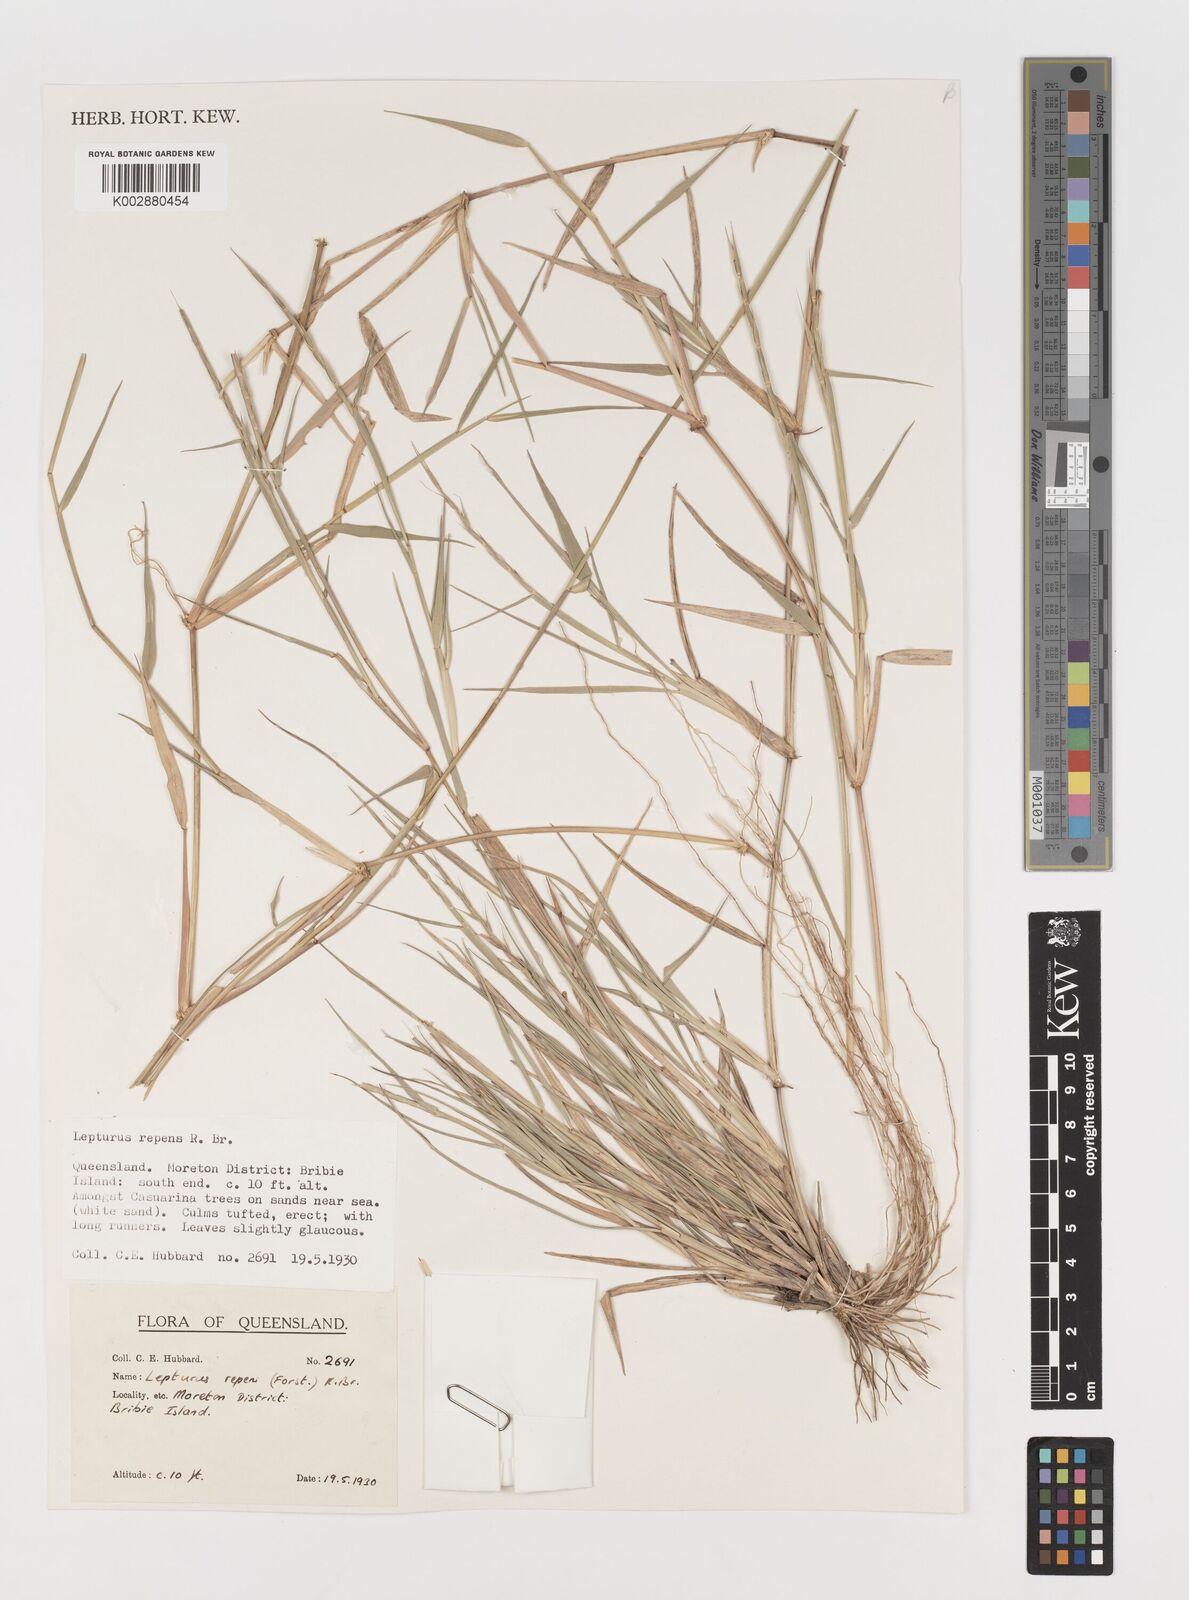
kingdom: Plantae
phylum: Tracheophyta
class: Liliopsida
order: Poales
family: Poaceae
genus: Lepturus
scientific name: Lepturus repens
